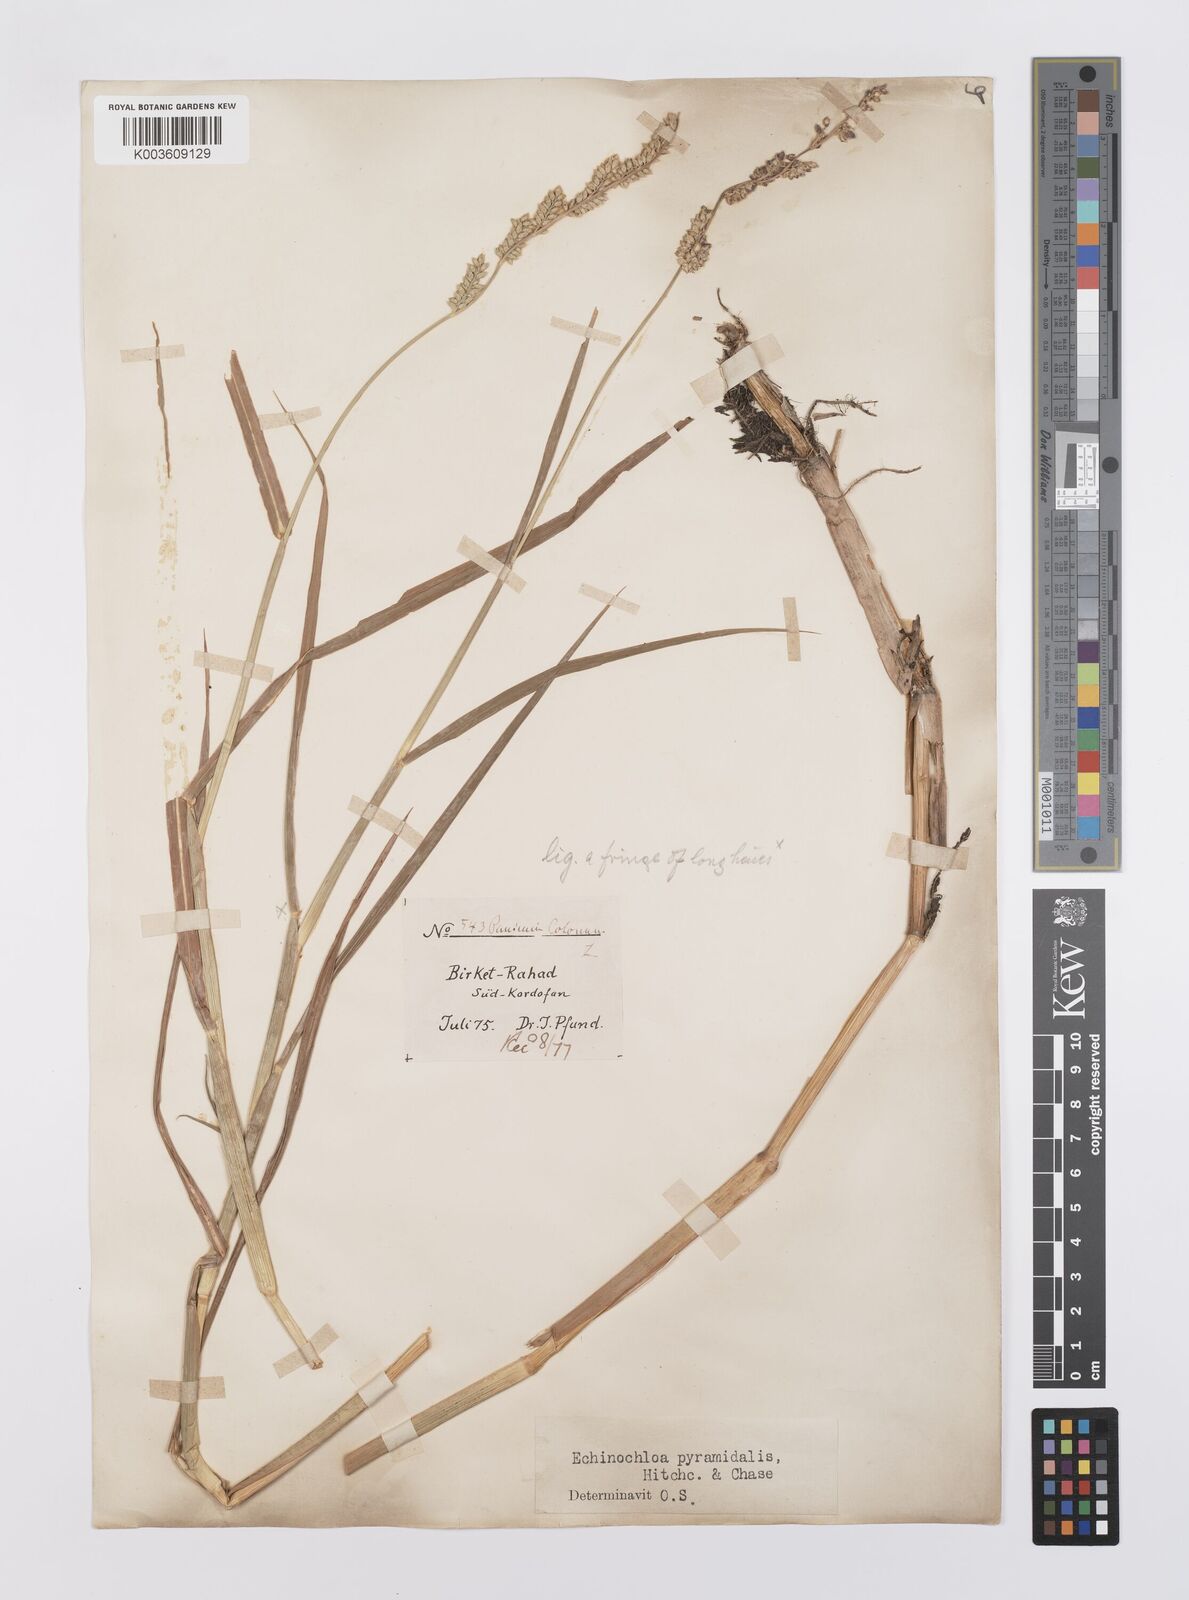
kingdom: Plantae
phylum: Tracheophyta
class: Liliopsida
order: Poales
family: Poaceae
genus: Echinochloa
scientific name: Echinochloa pyramidalis
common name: Antelope grass
